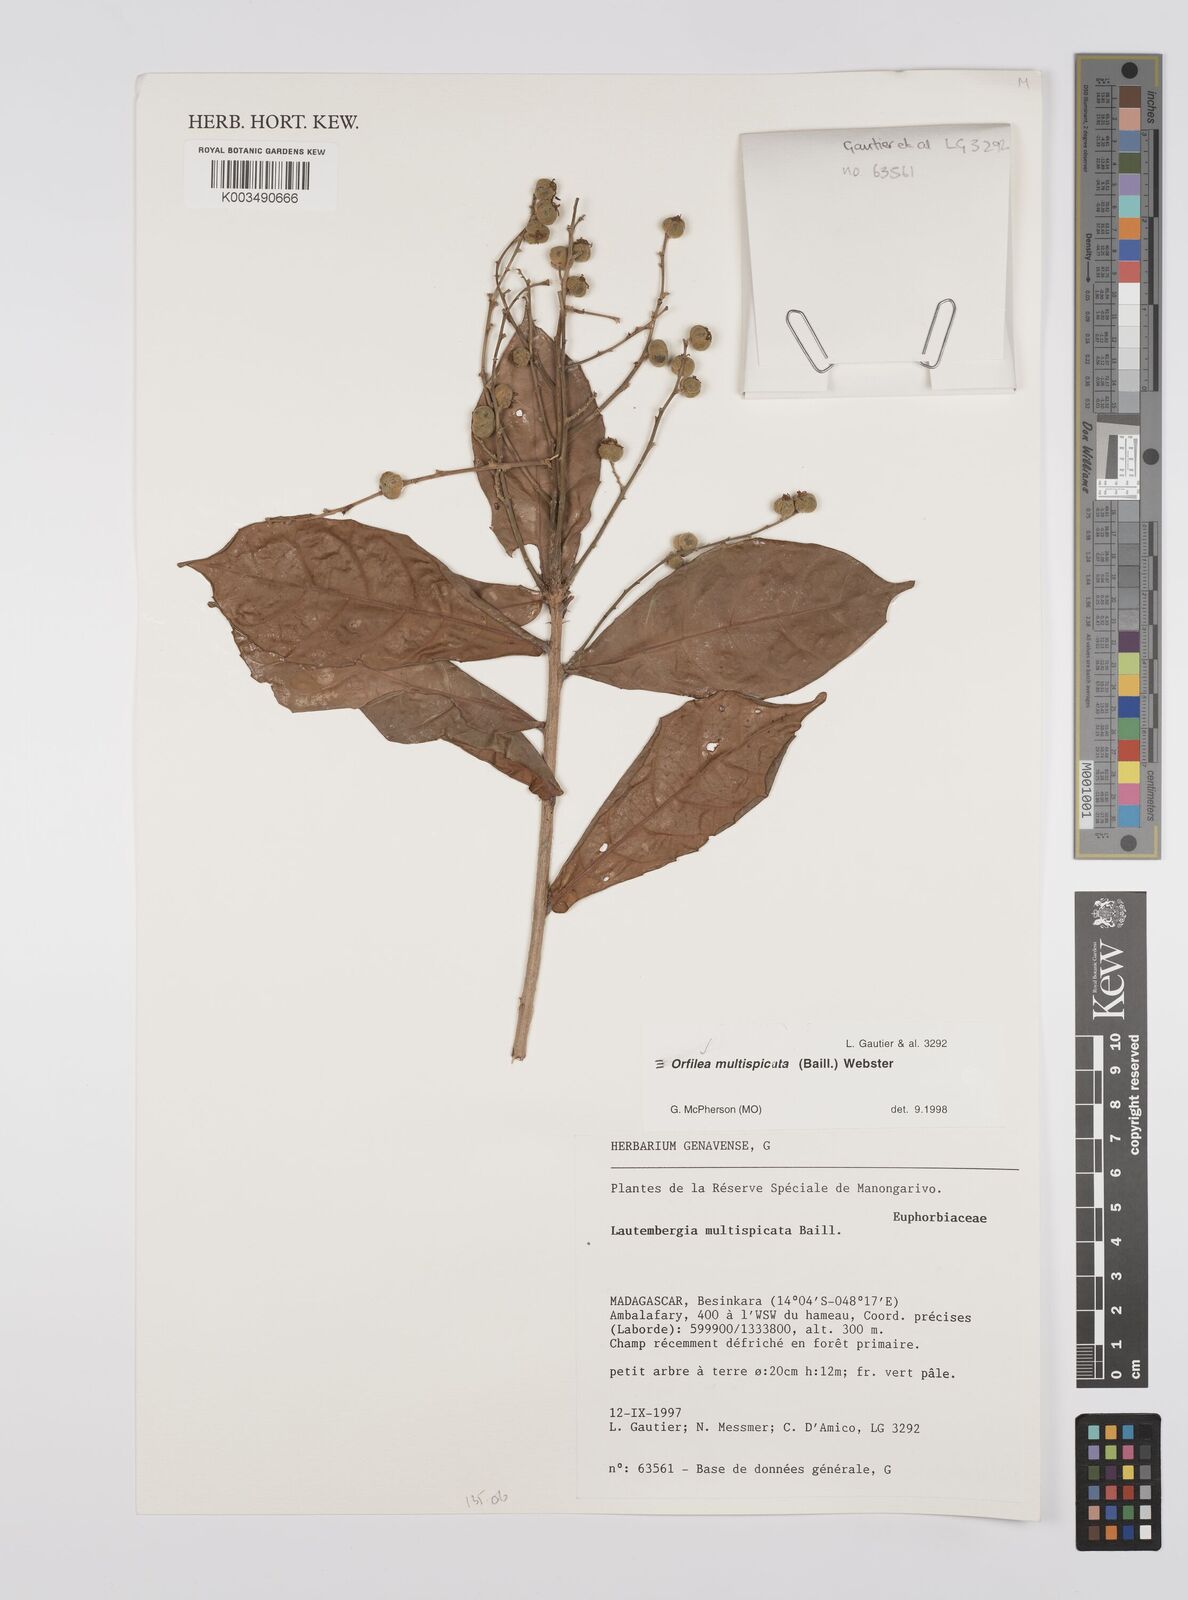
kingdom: Plantae
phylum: Tracheophyta
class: Magnoliopsida
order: Malpighiales
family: Euphorbiaceae
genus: Orfilea
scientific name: Orfilea multispicata
